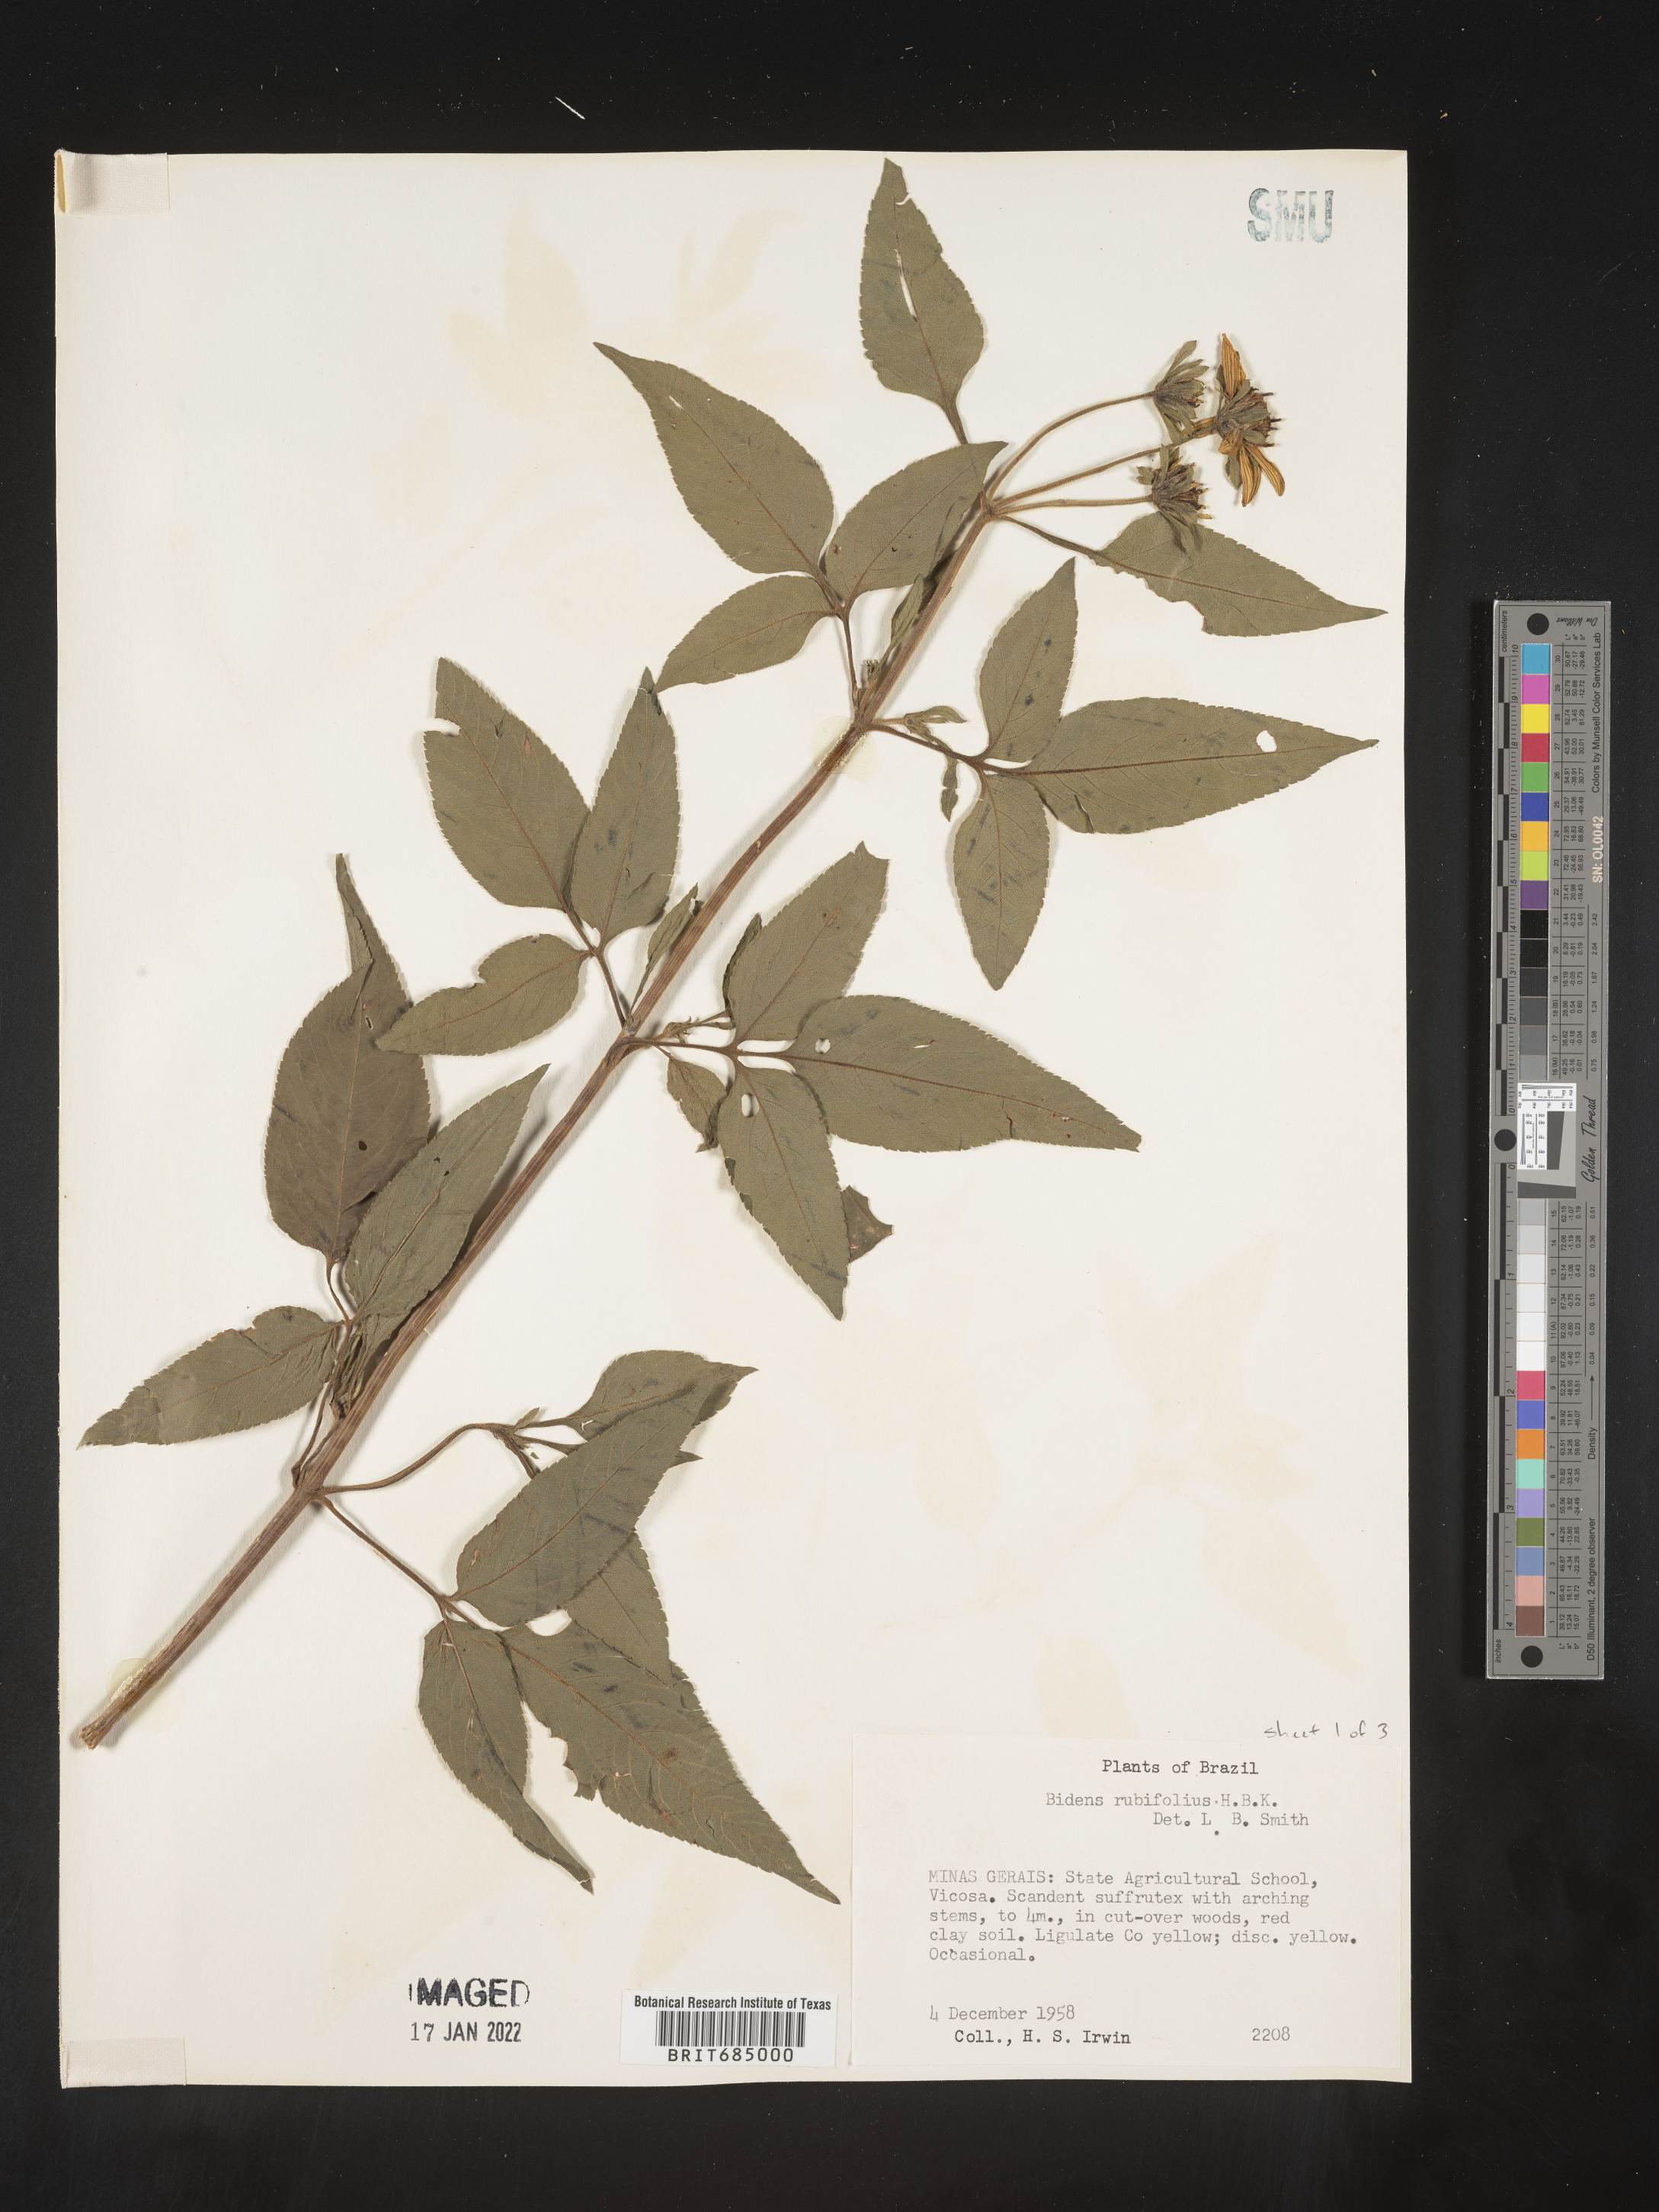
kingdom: Plantae
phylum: Tracheophyta
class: Magnoliopsida
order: Asterales
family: Asteraceae
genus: Bidens
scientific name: Bidens rubifolia
